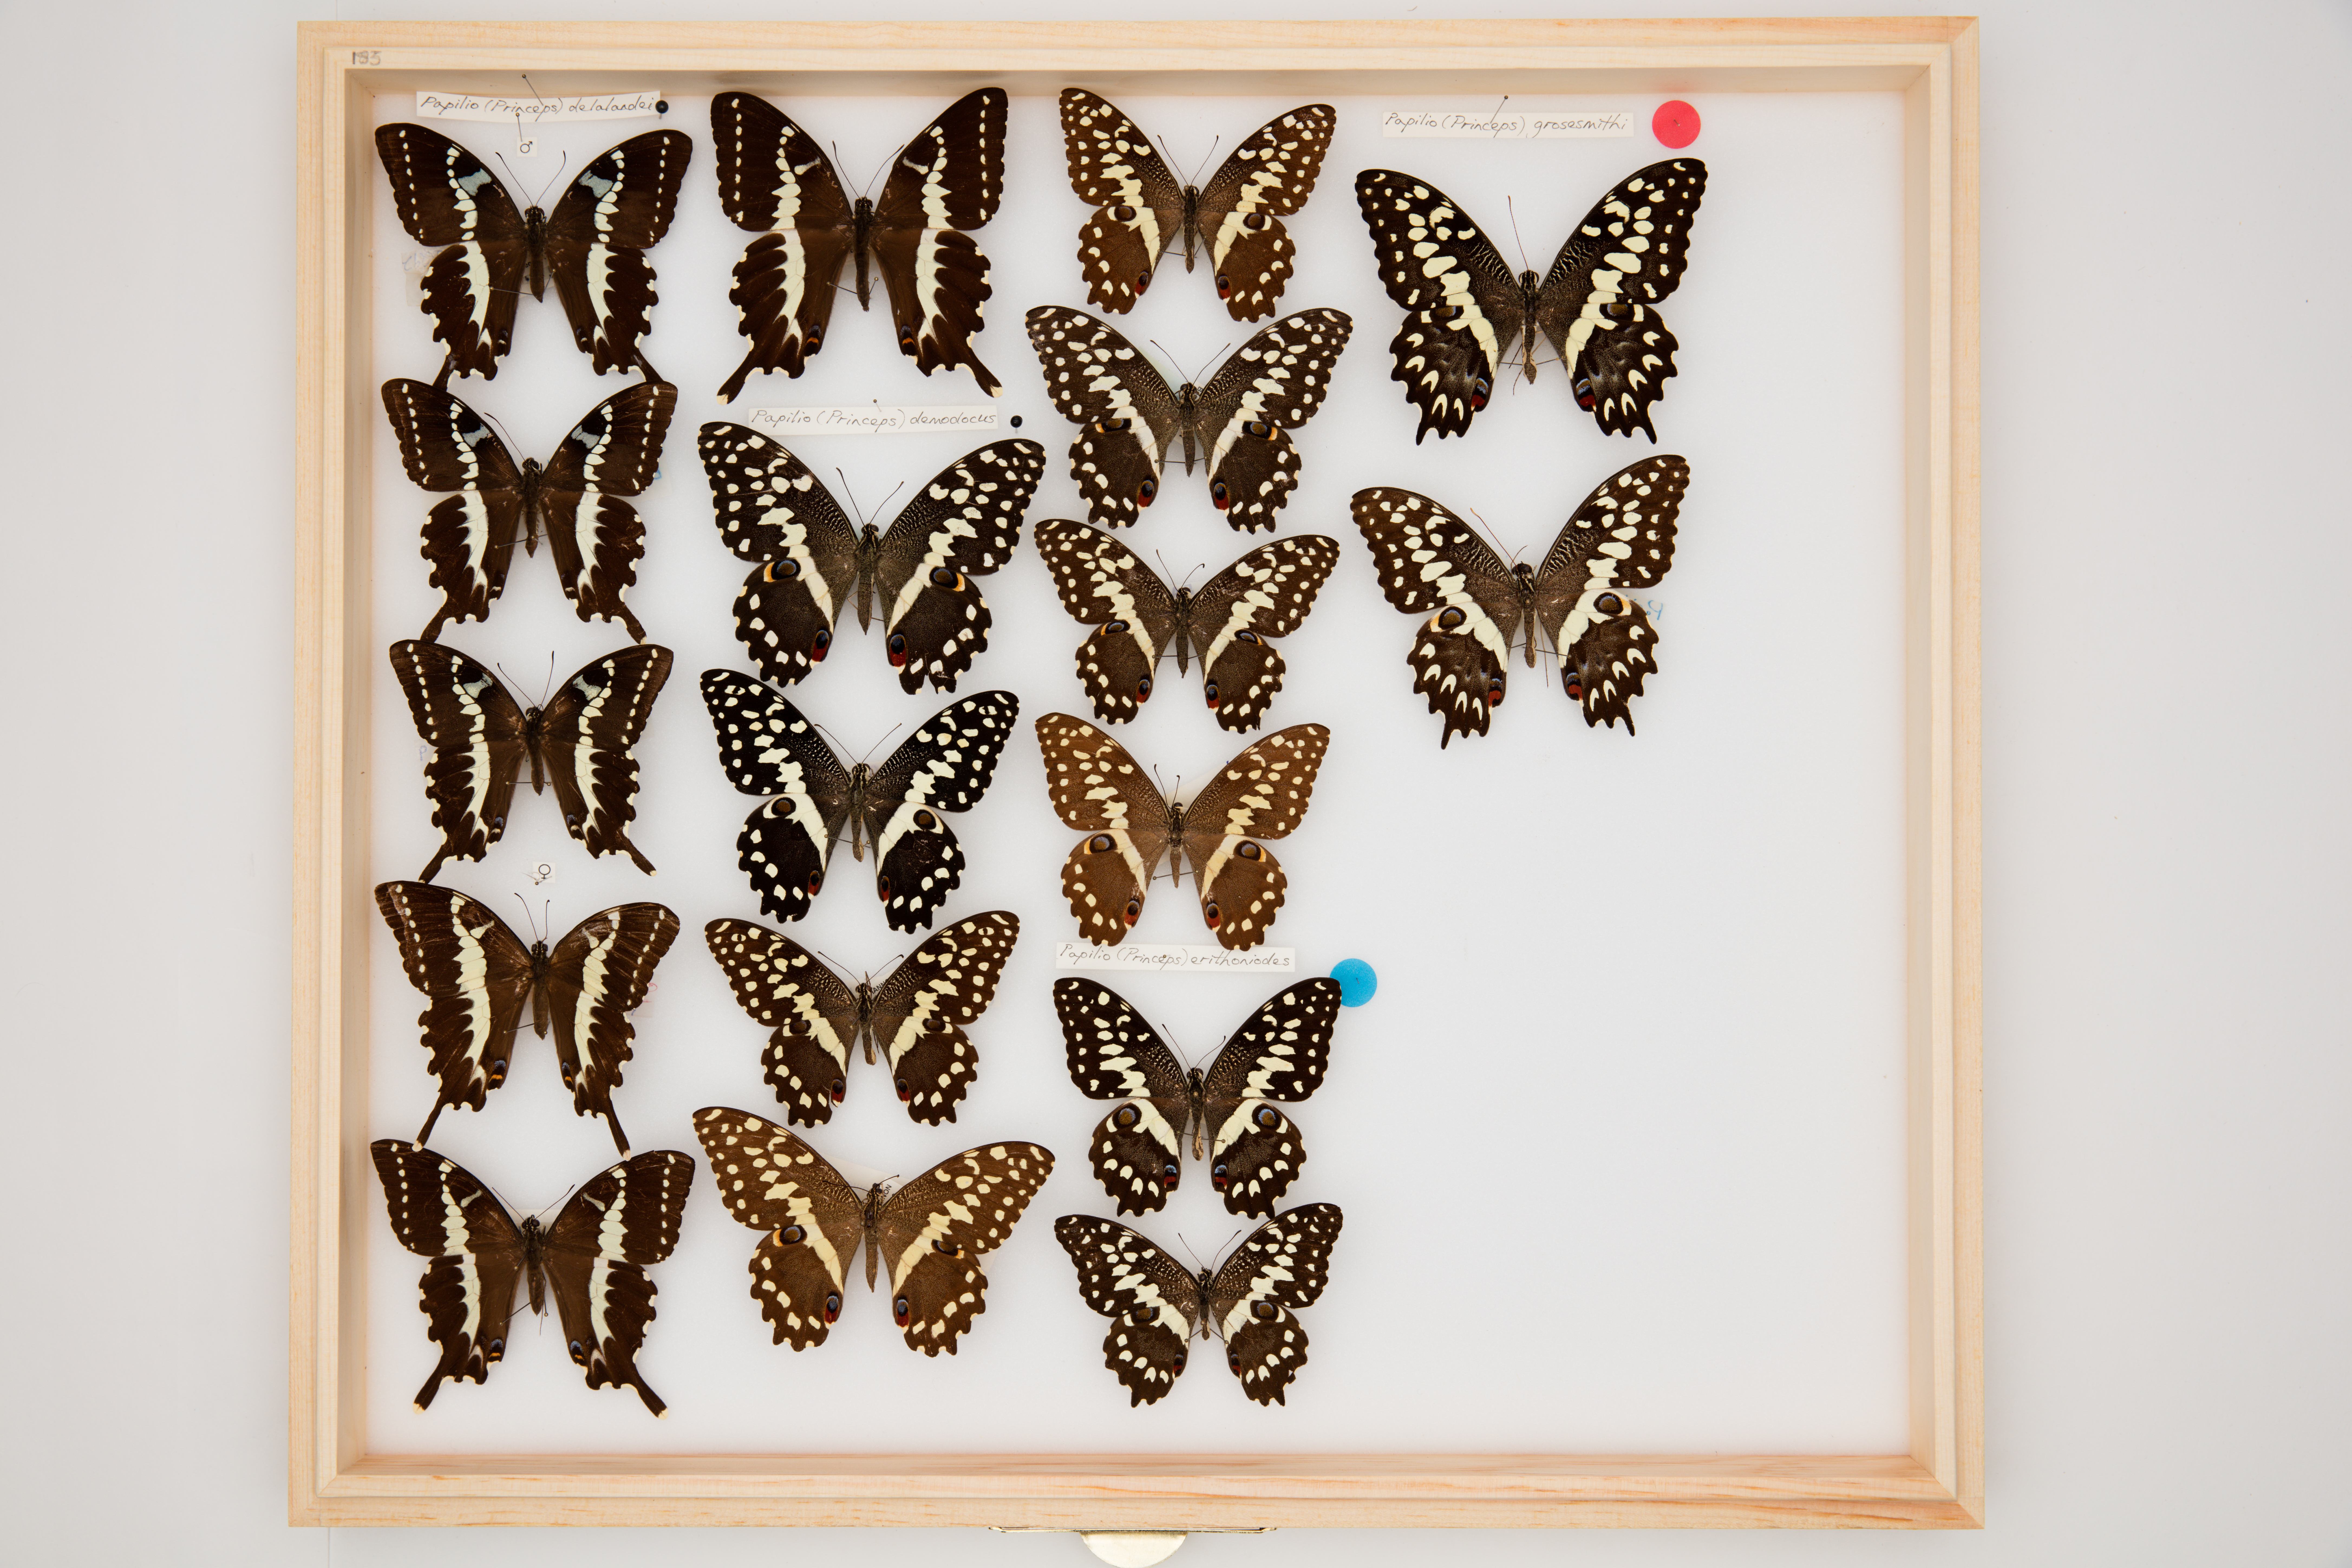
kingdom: Animalia
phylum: Arthropoda
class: Insecta
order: Lepidoptera
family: Papilionidae
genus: Papilio
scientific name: Papilio demodocus
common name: Christmas butterfly
